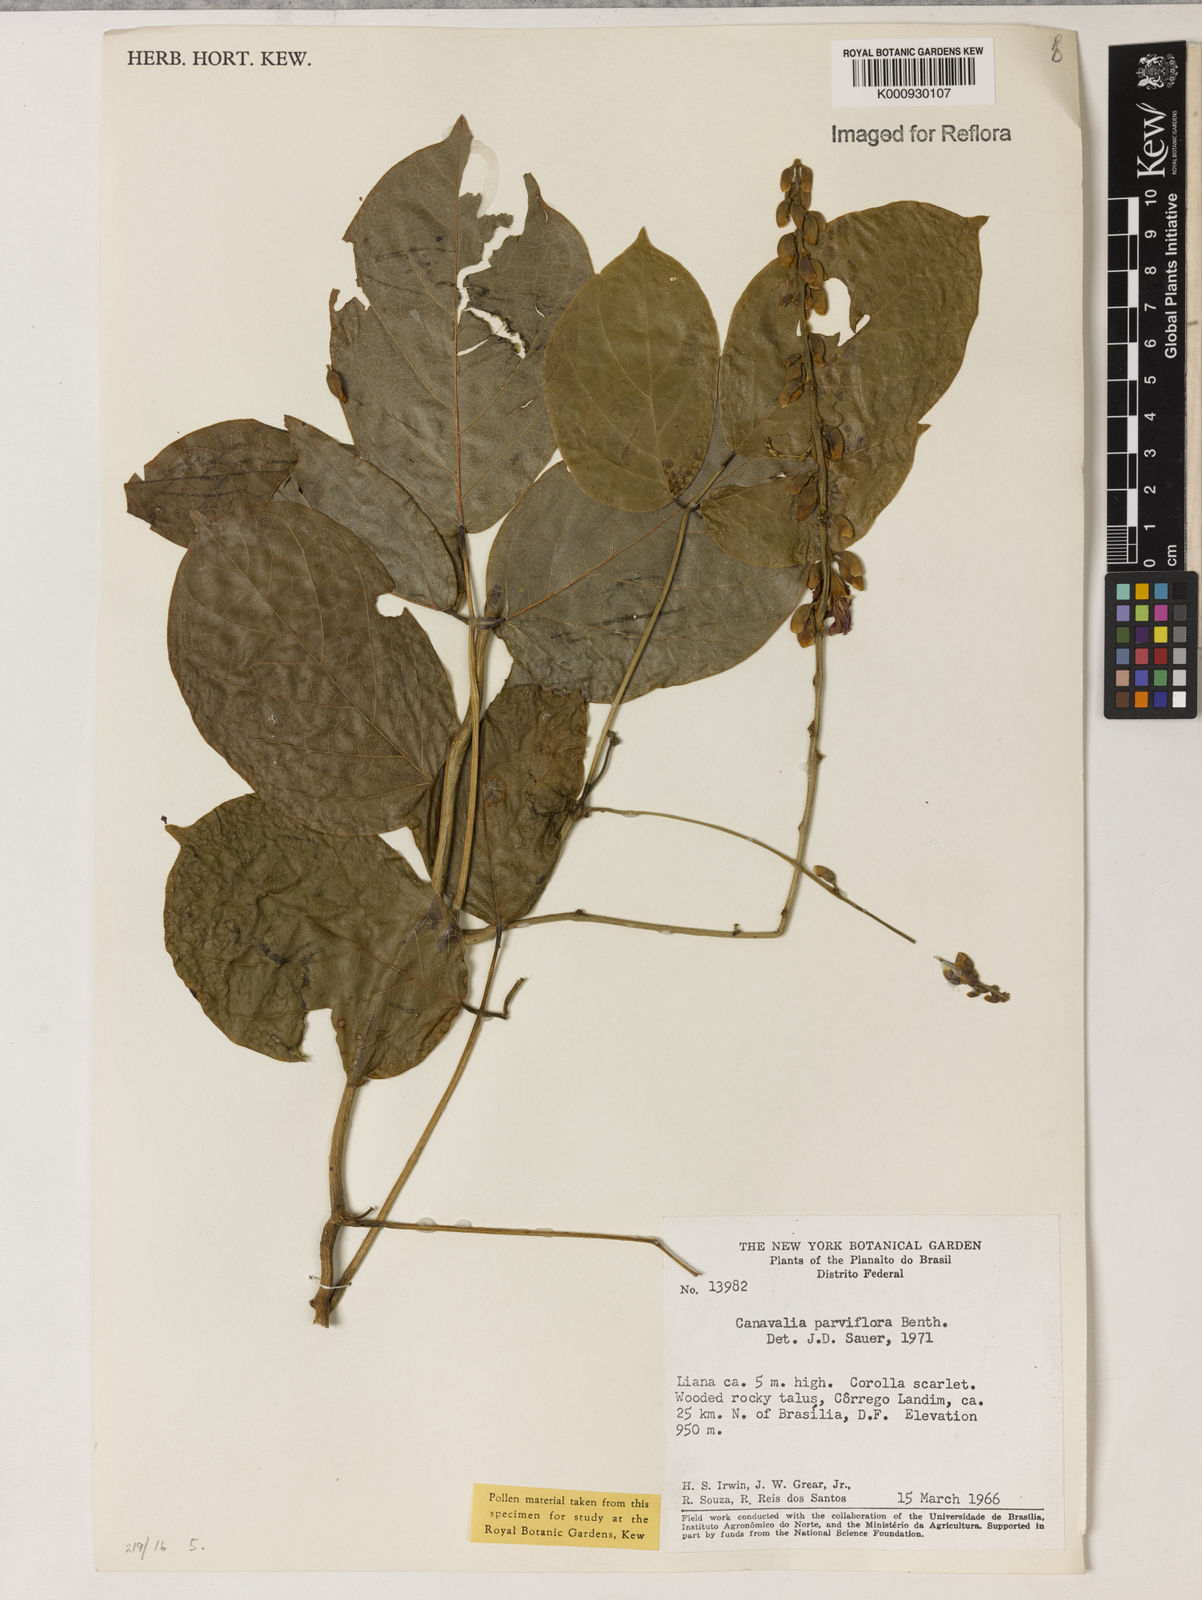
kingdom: Plantae
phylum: Tracheophyta
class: Magnoliopsida
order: Fabales
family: Fabaceae
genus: Canavalia
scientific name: Canavalia parviflora
